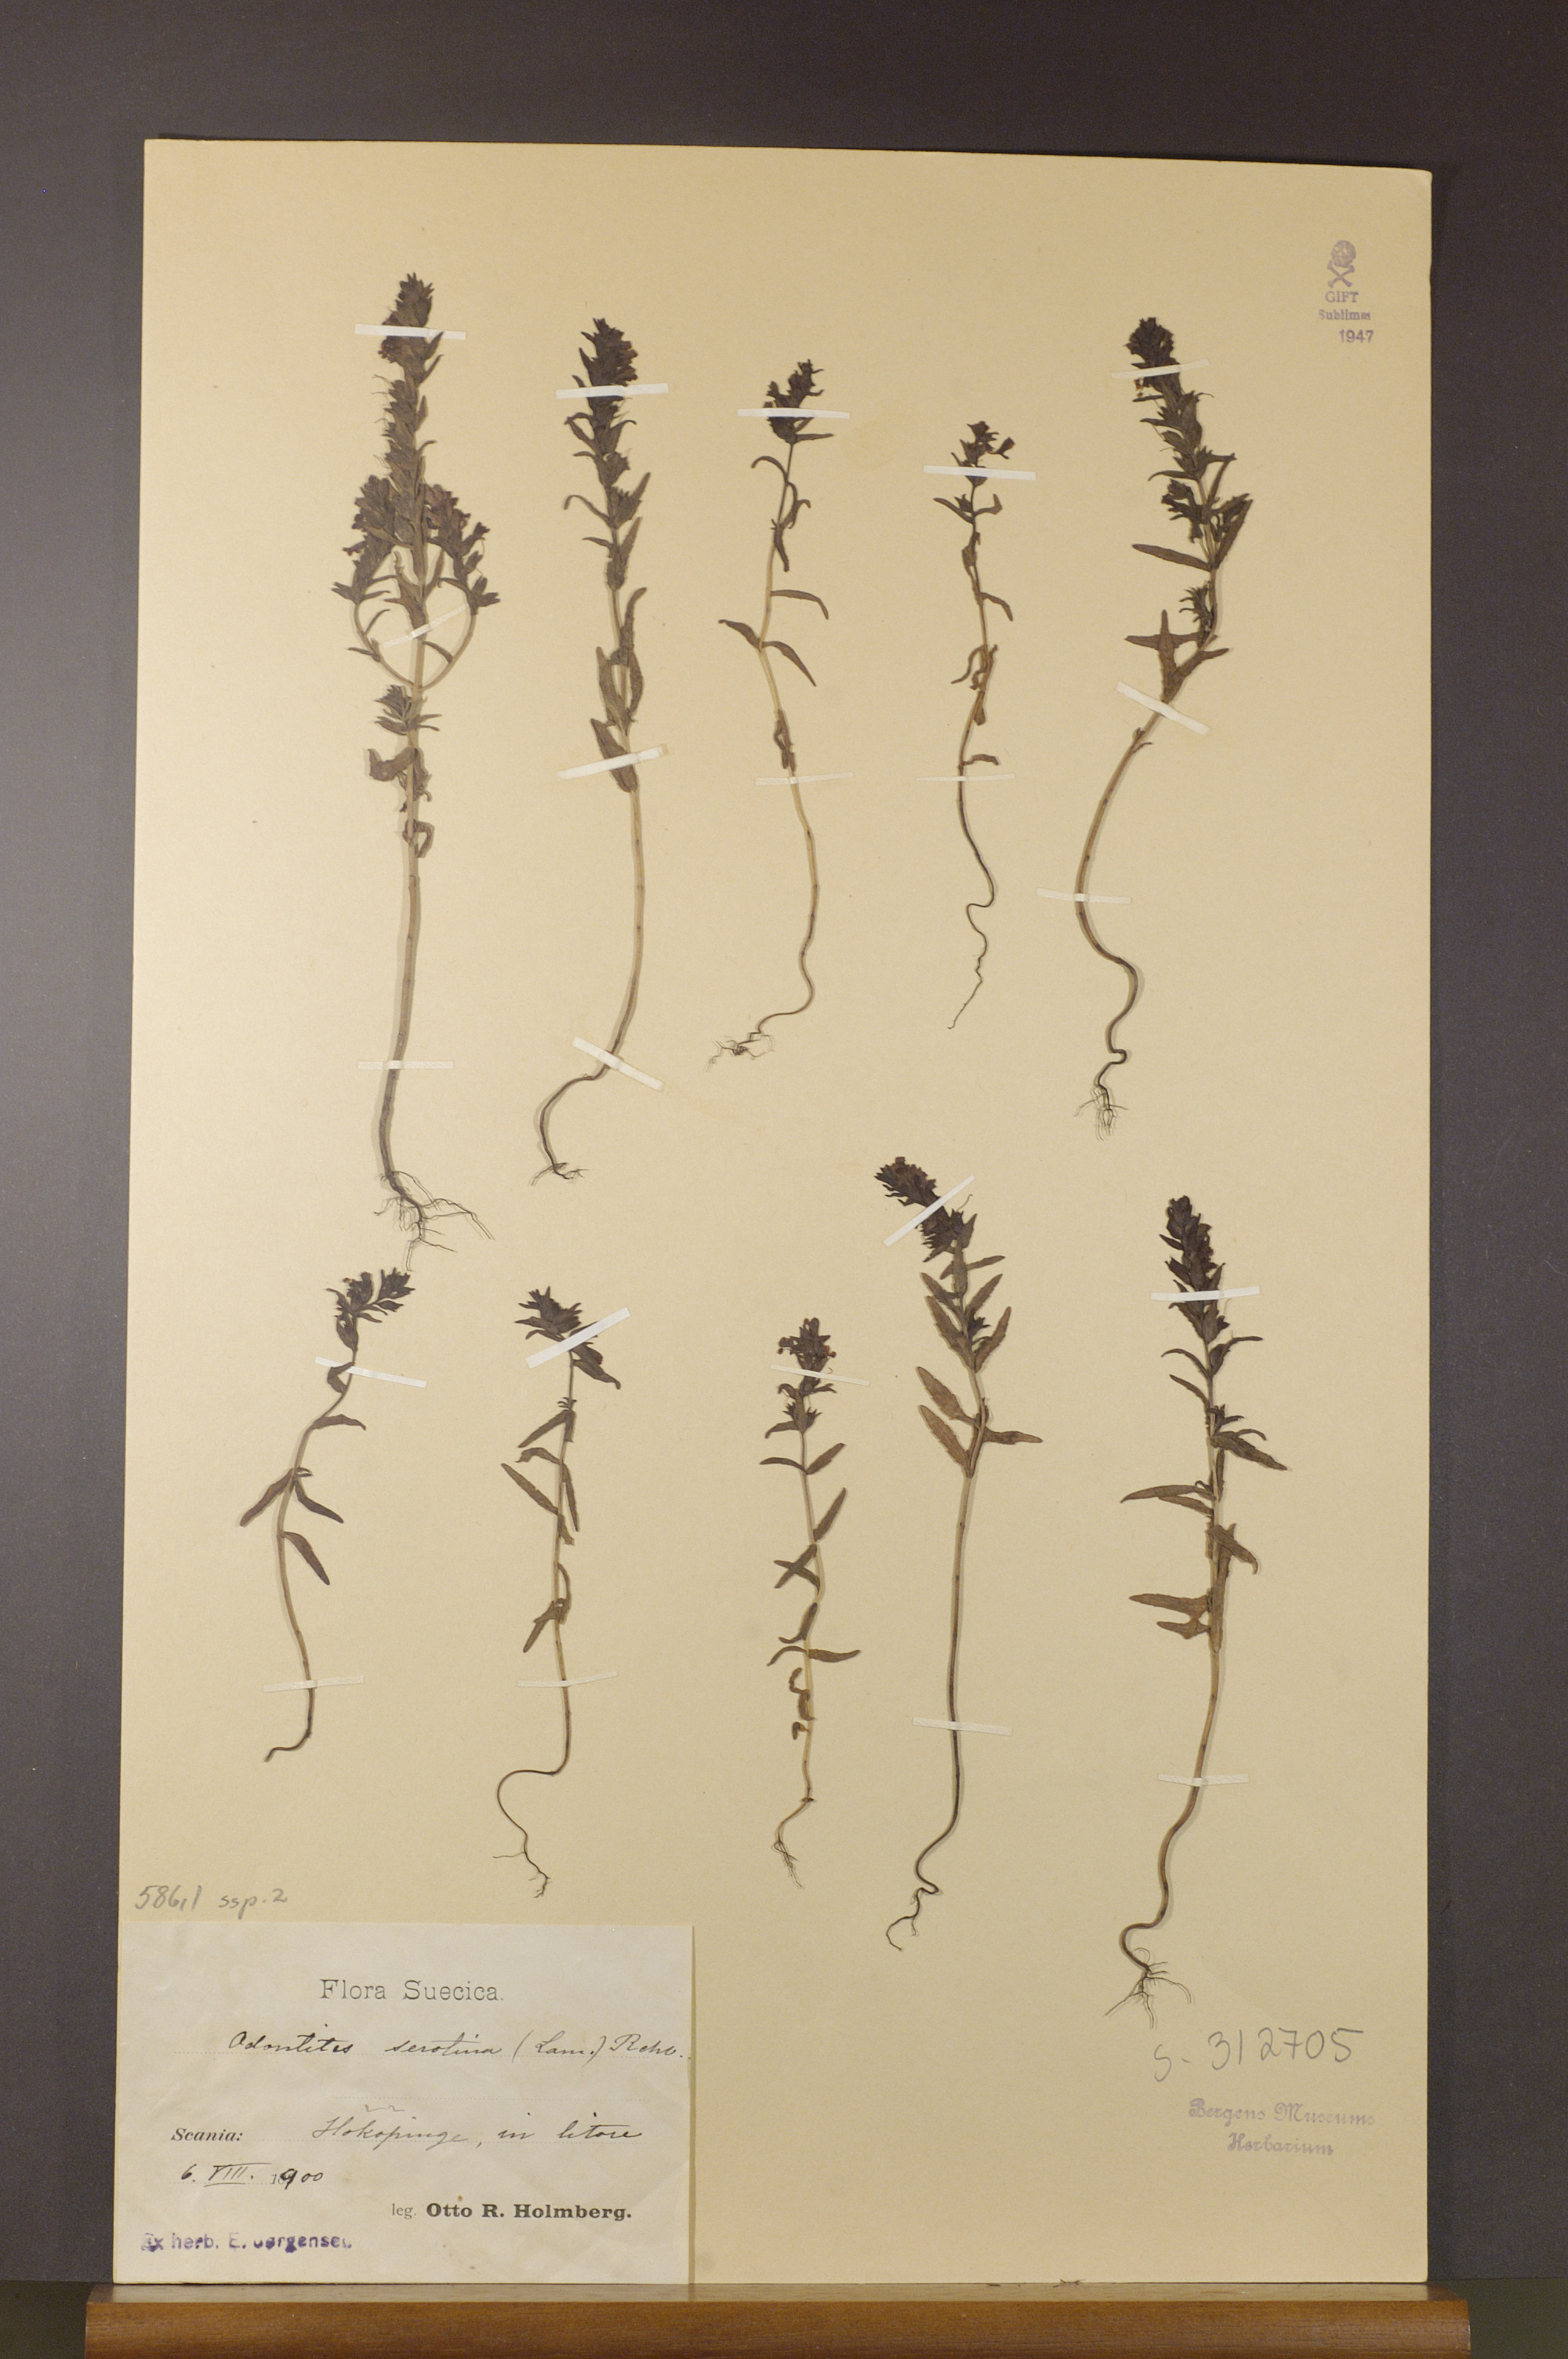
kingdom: Plantae
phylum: Tracheophyta
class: Magnoliopsida
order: Lamiales
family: Orobanchaceae
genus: Odontites
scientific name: Odontites vulgaris
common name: Broomrape
